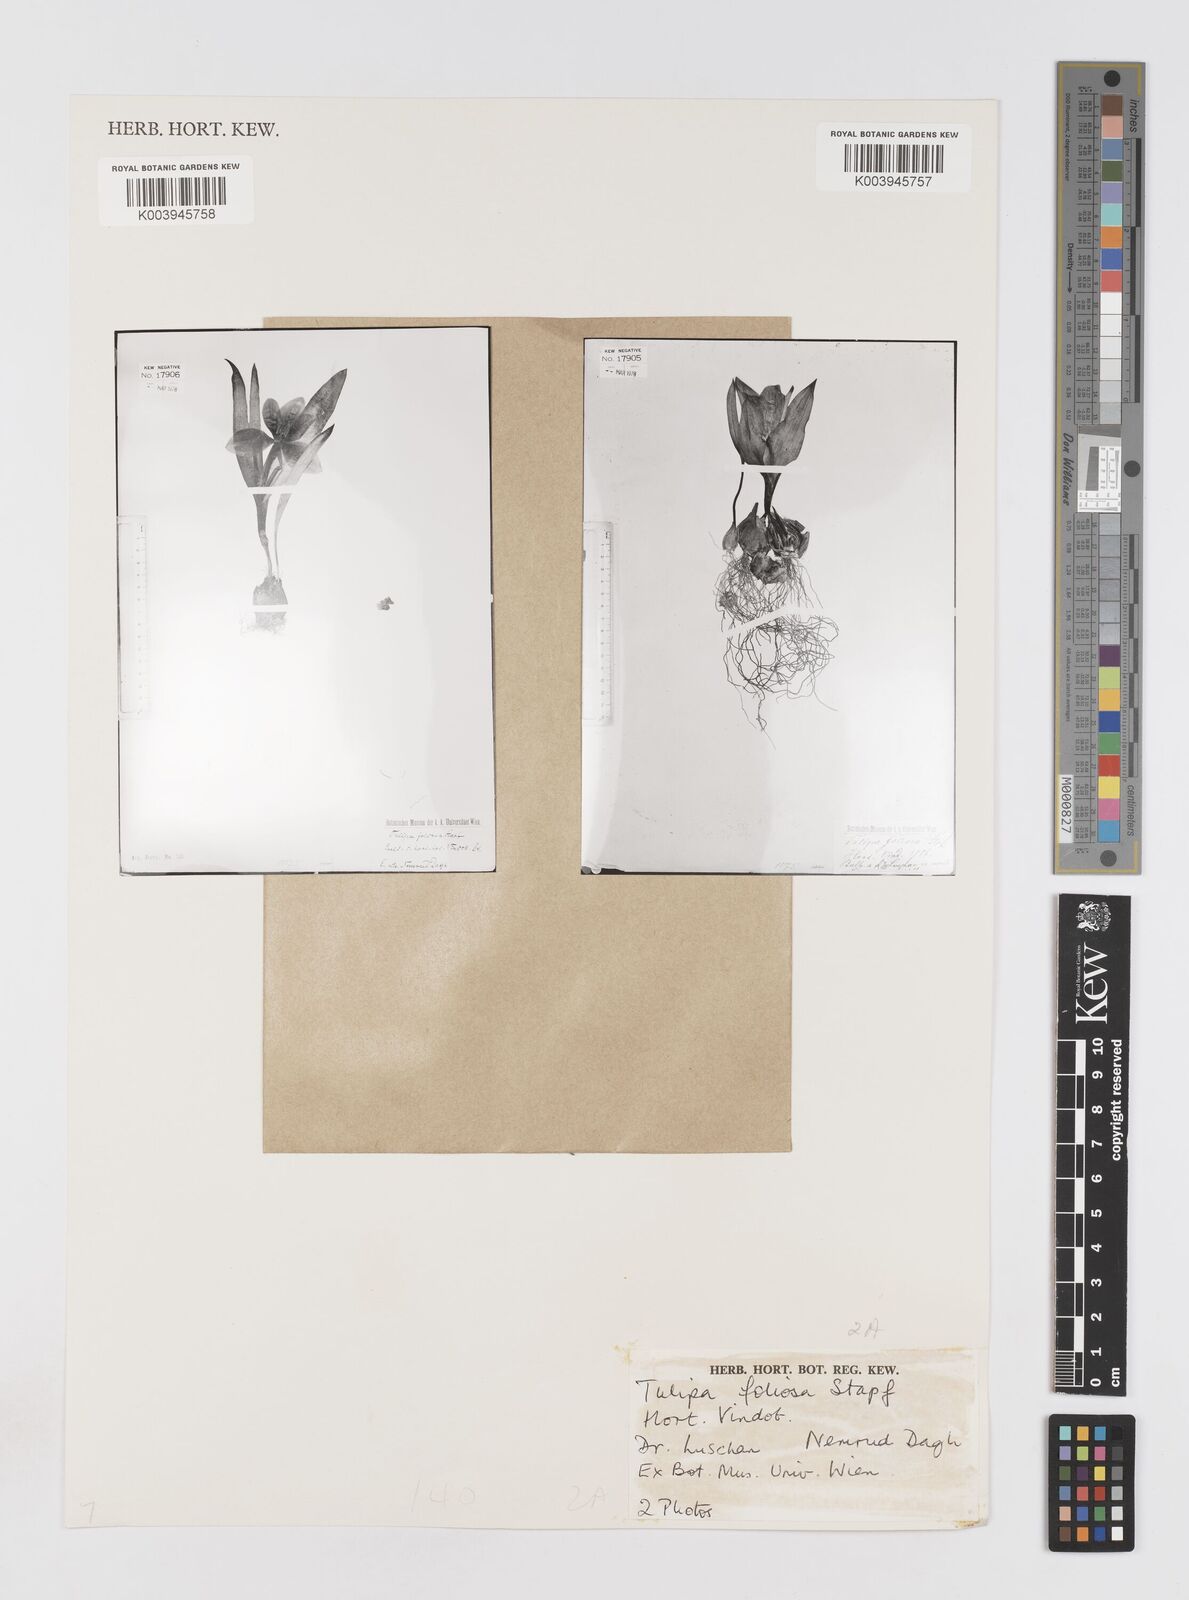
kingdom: Plantae
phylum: Tracheophyta
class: Liliopsida
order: Liliales
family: Liliaceae
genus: Tulipa
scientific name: Tulipa foliosa
